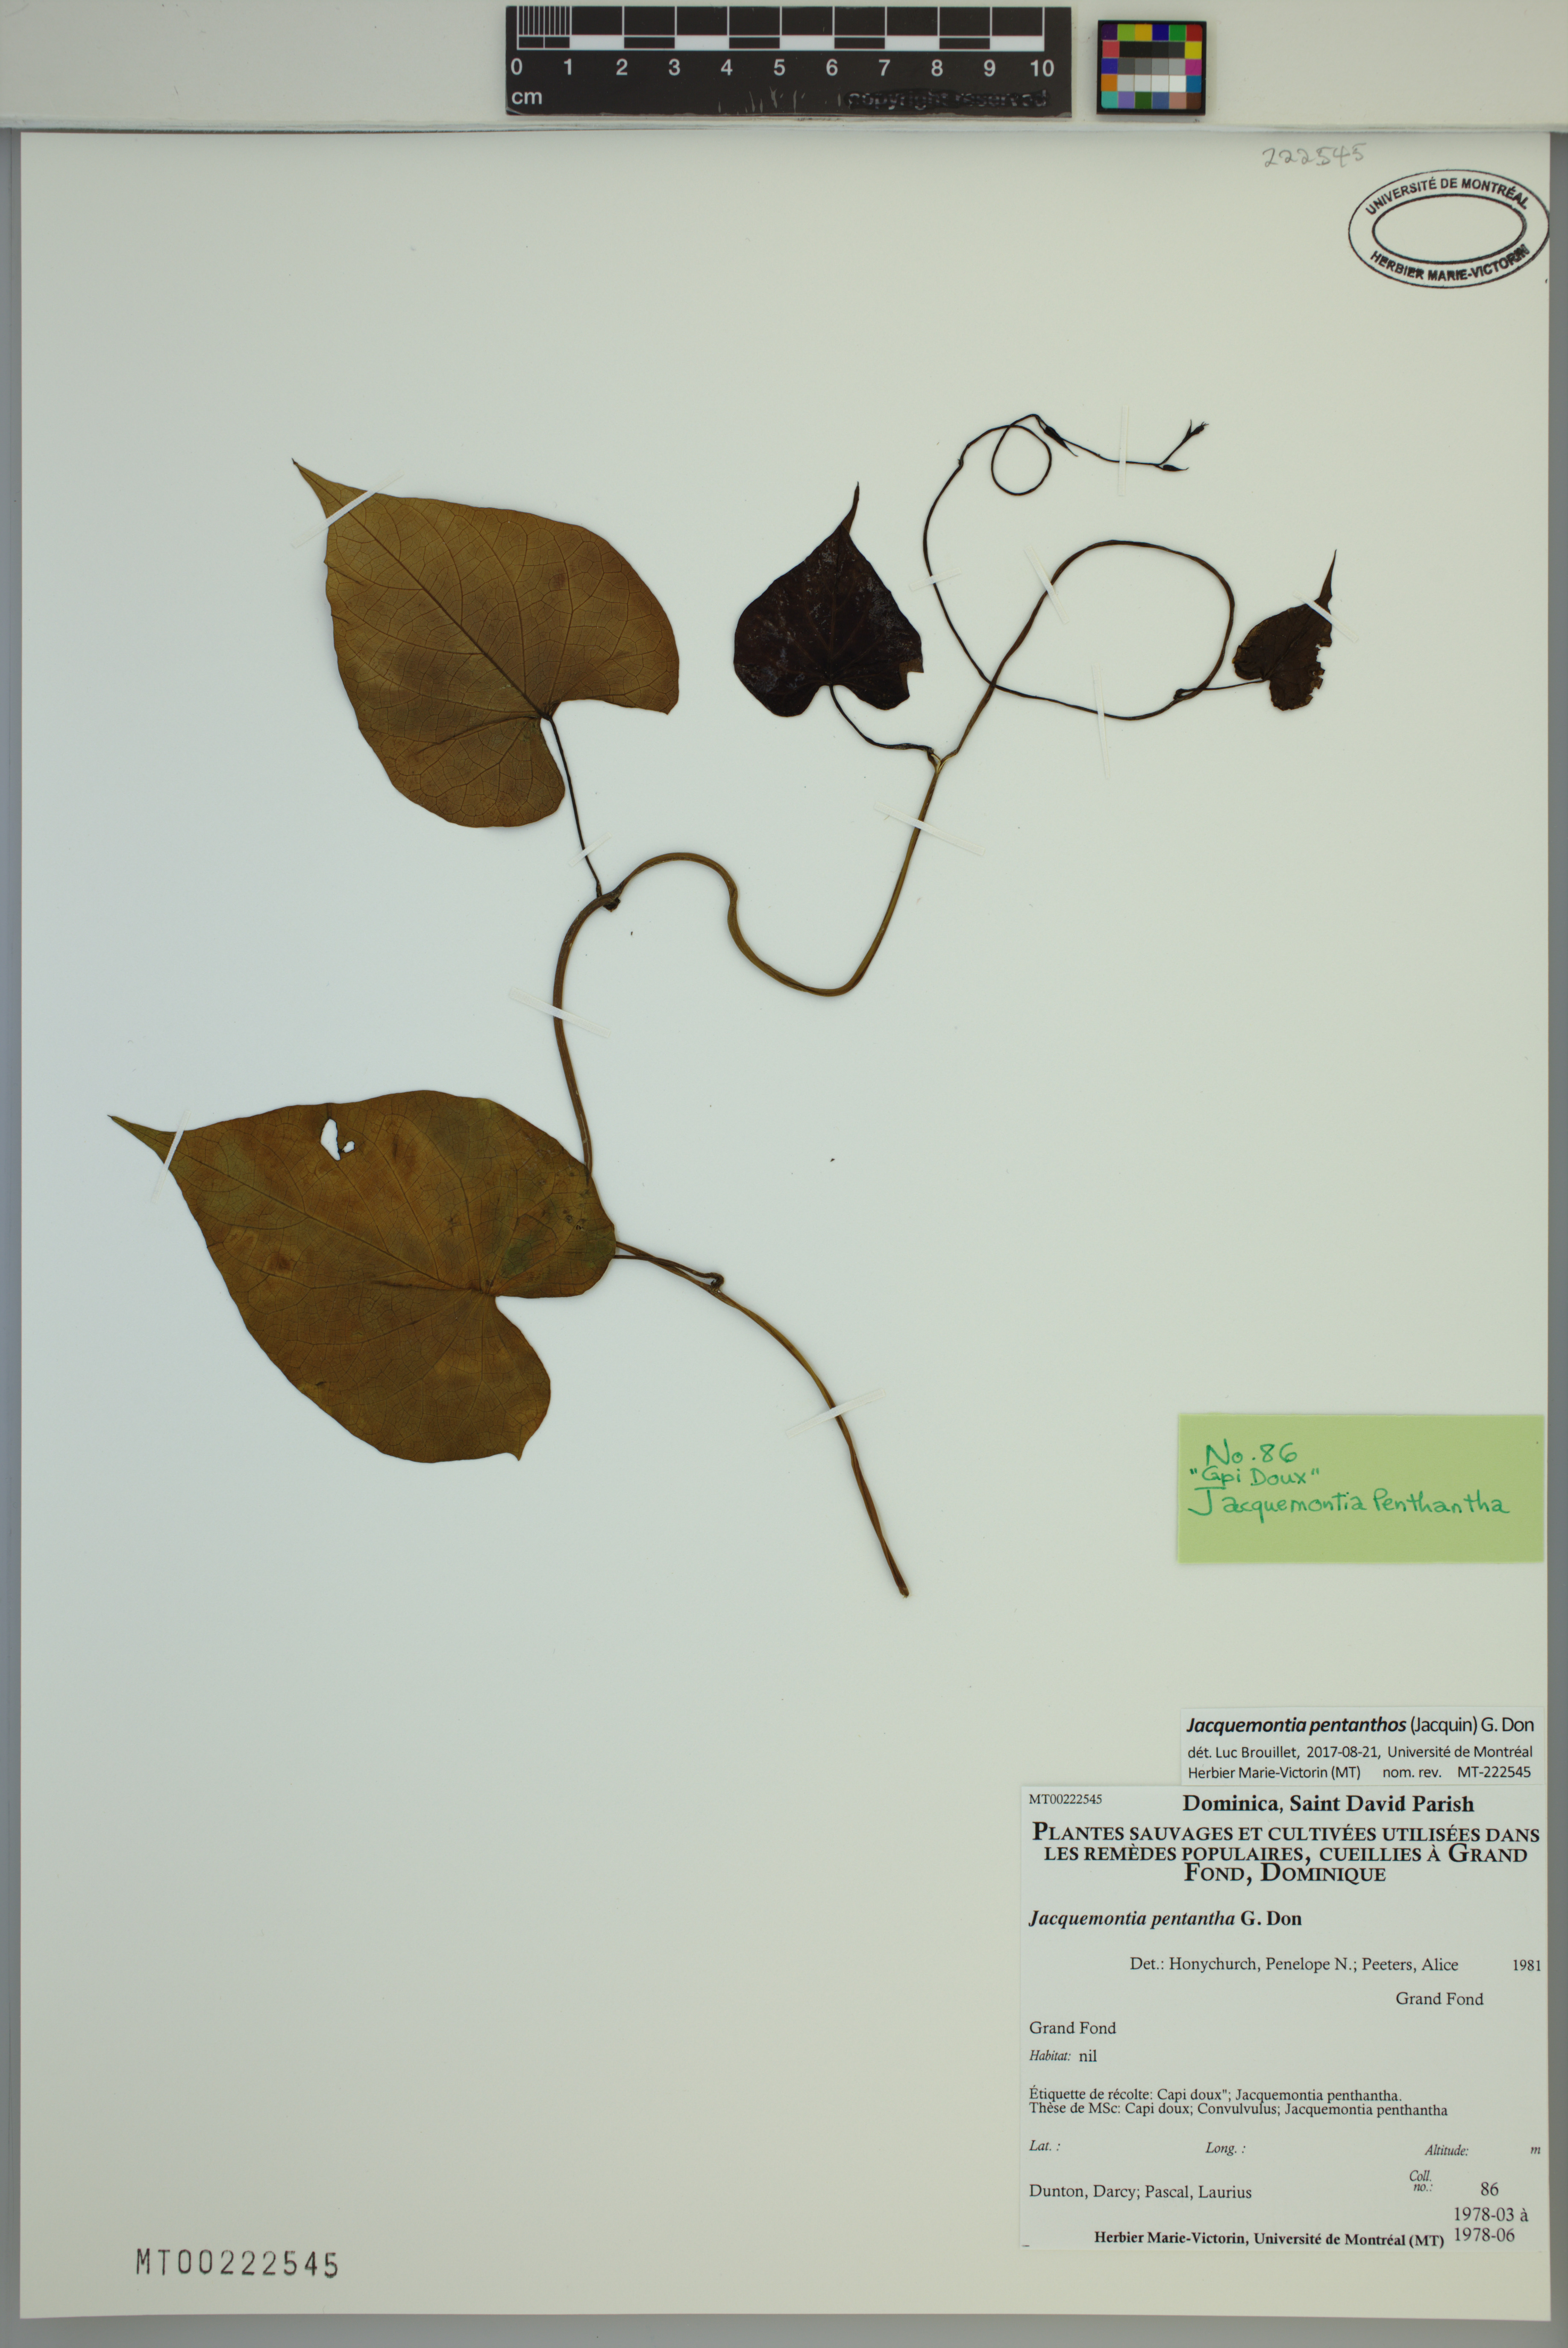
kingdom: Plantae
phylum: Tracheophyta
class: Magnoliopsida
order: Solanales
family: Convolvulaceae
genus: Jacquemontia
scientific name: Jacquemontia pentanthos
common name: Skyblue clustervine
